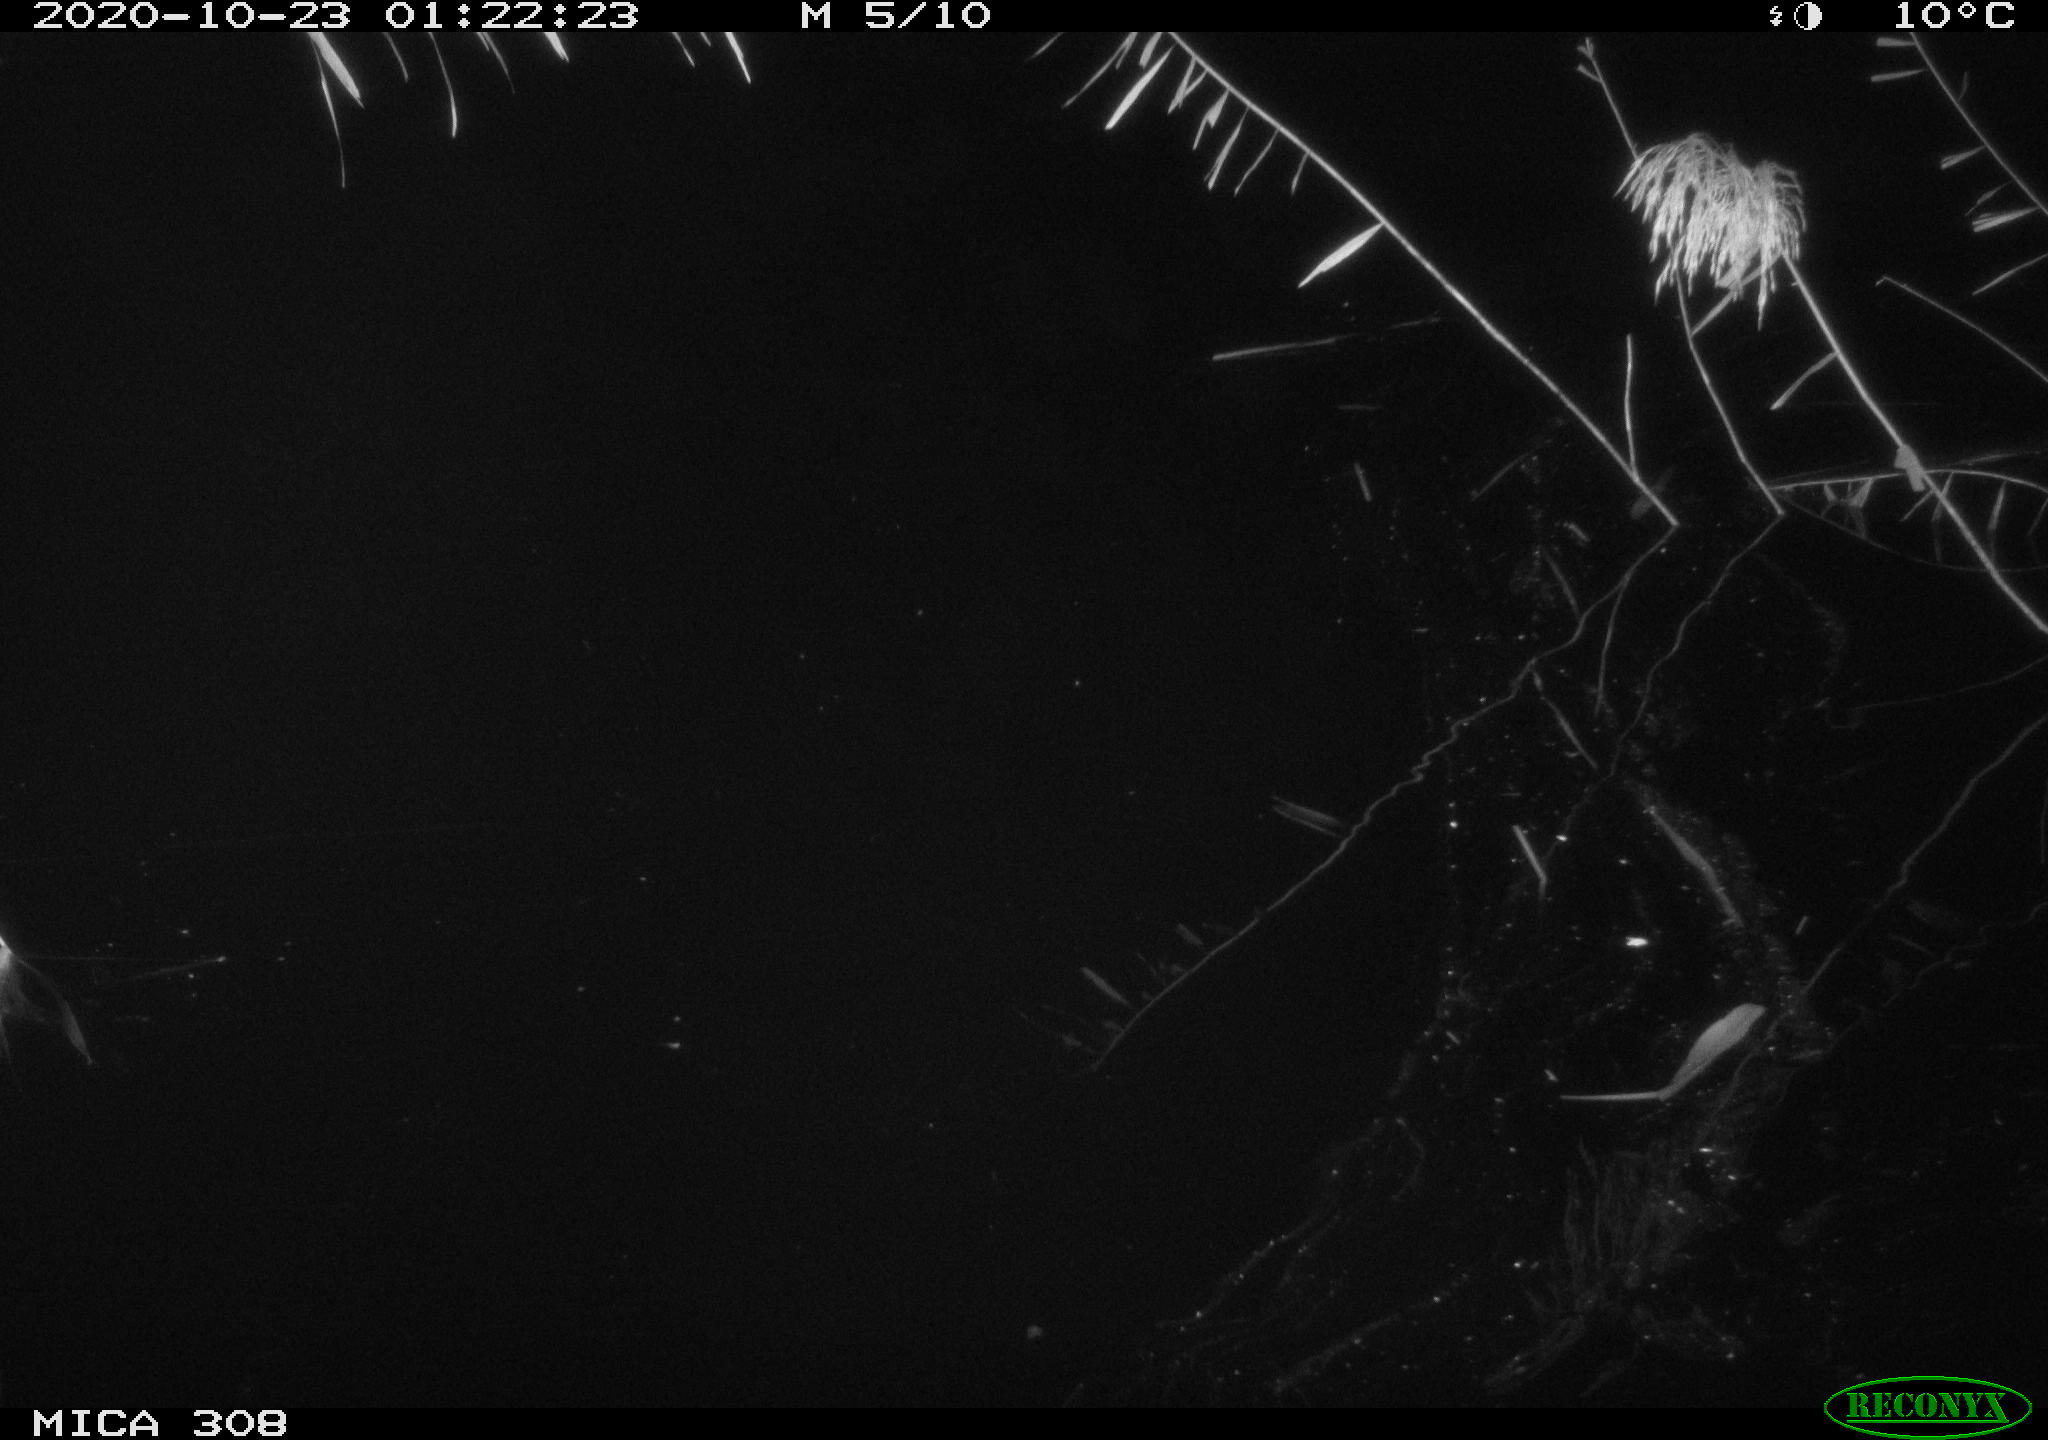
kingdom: Animalia
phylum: Chordata
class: Aves
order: Anseriformes
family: Anatidae
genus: Anas
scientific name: Anas platyrhynchos
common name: Mallard
